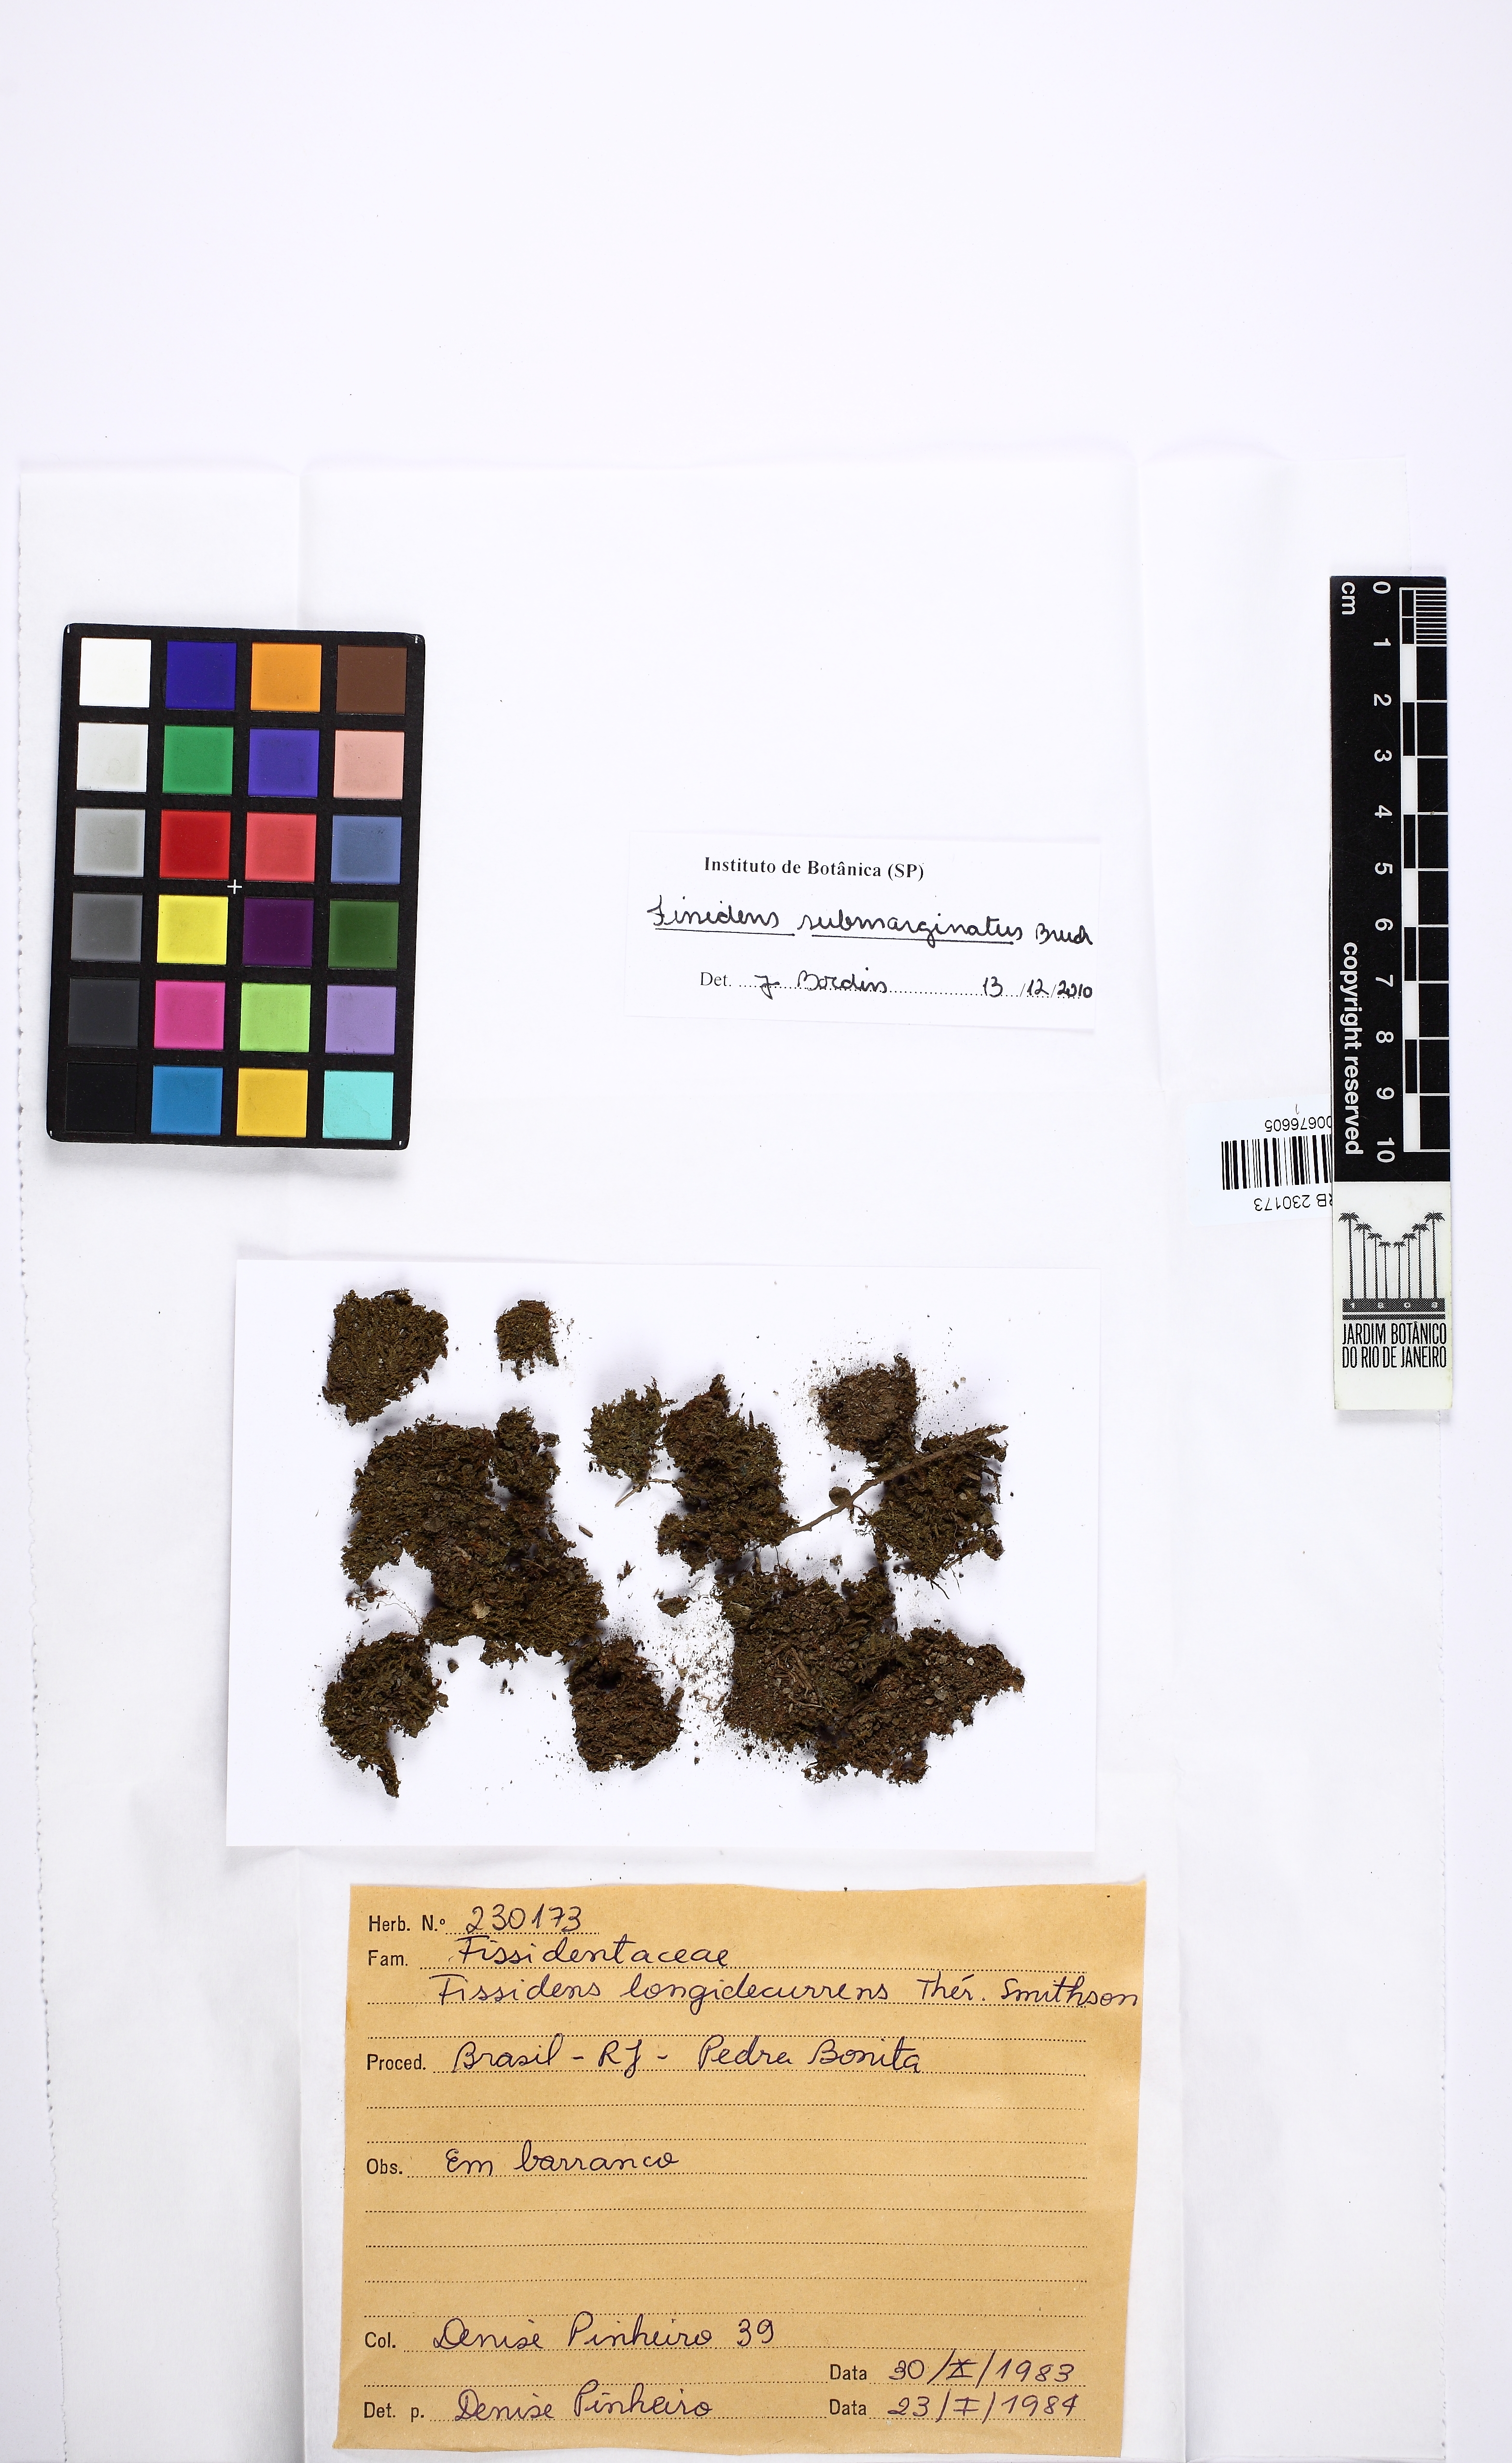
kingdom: Plantae
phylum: Bryophyta
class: Bryopsida
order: Dicranales
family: Fissidentaceae
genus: Fissidens
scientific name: Fissidens crispus
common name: Herzog's pocket-moss
